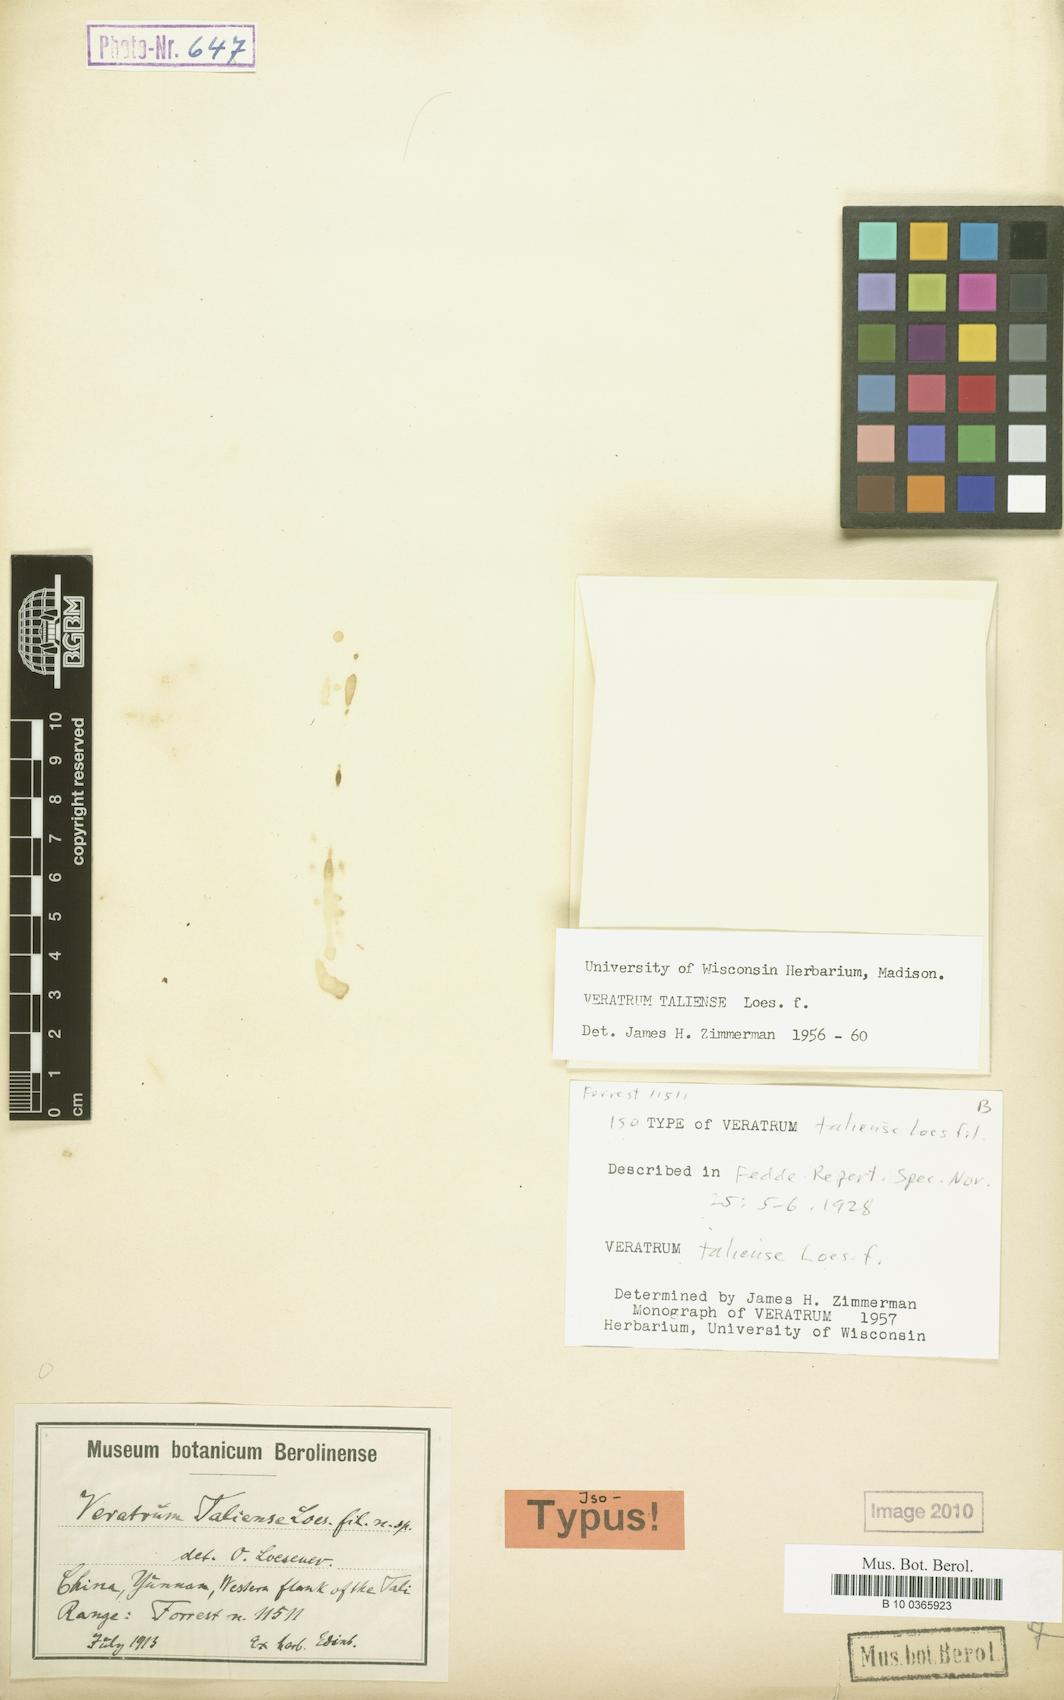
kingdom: Plantae
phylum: Tracheophyta
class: Liliopsida
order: Liliales
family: Melanthiaceae
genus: Veratrum
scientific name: Veratrum taliense
